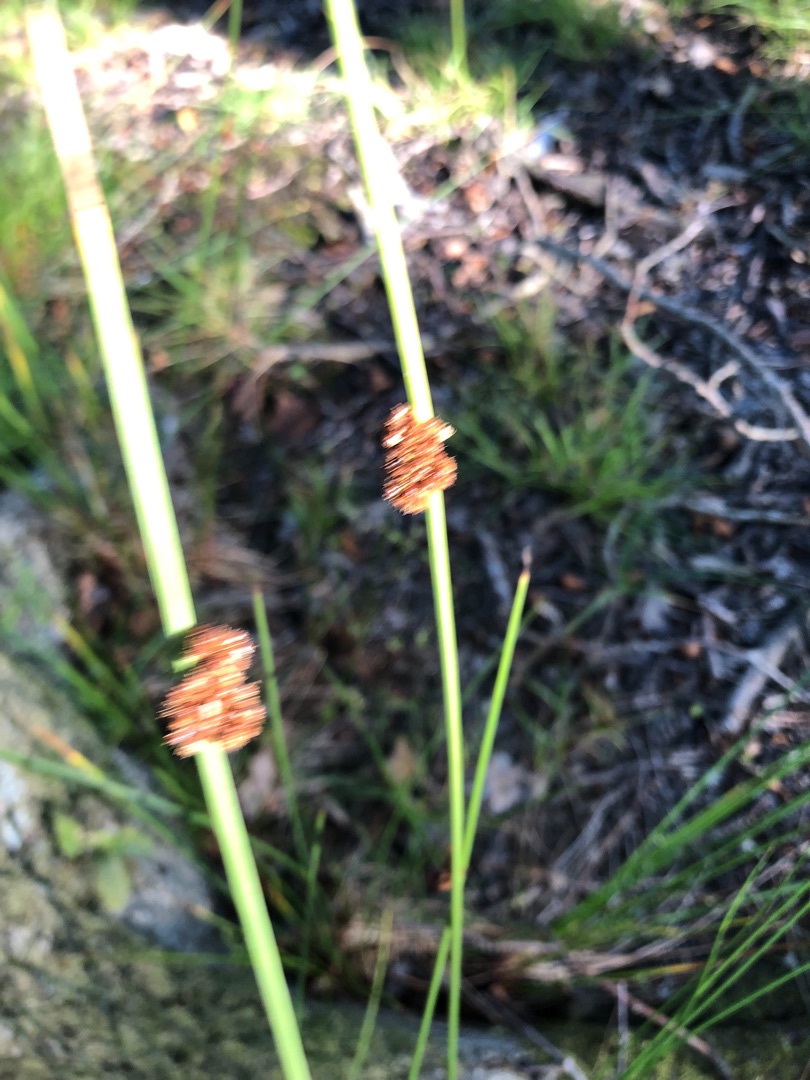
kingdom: Plantae
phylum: Tracheophyta
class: Liliopsida
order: Poales
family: Juncaceae
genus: Juncus
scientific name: Juncus conglomeratus
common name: Knop-siv
